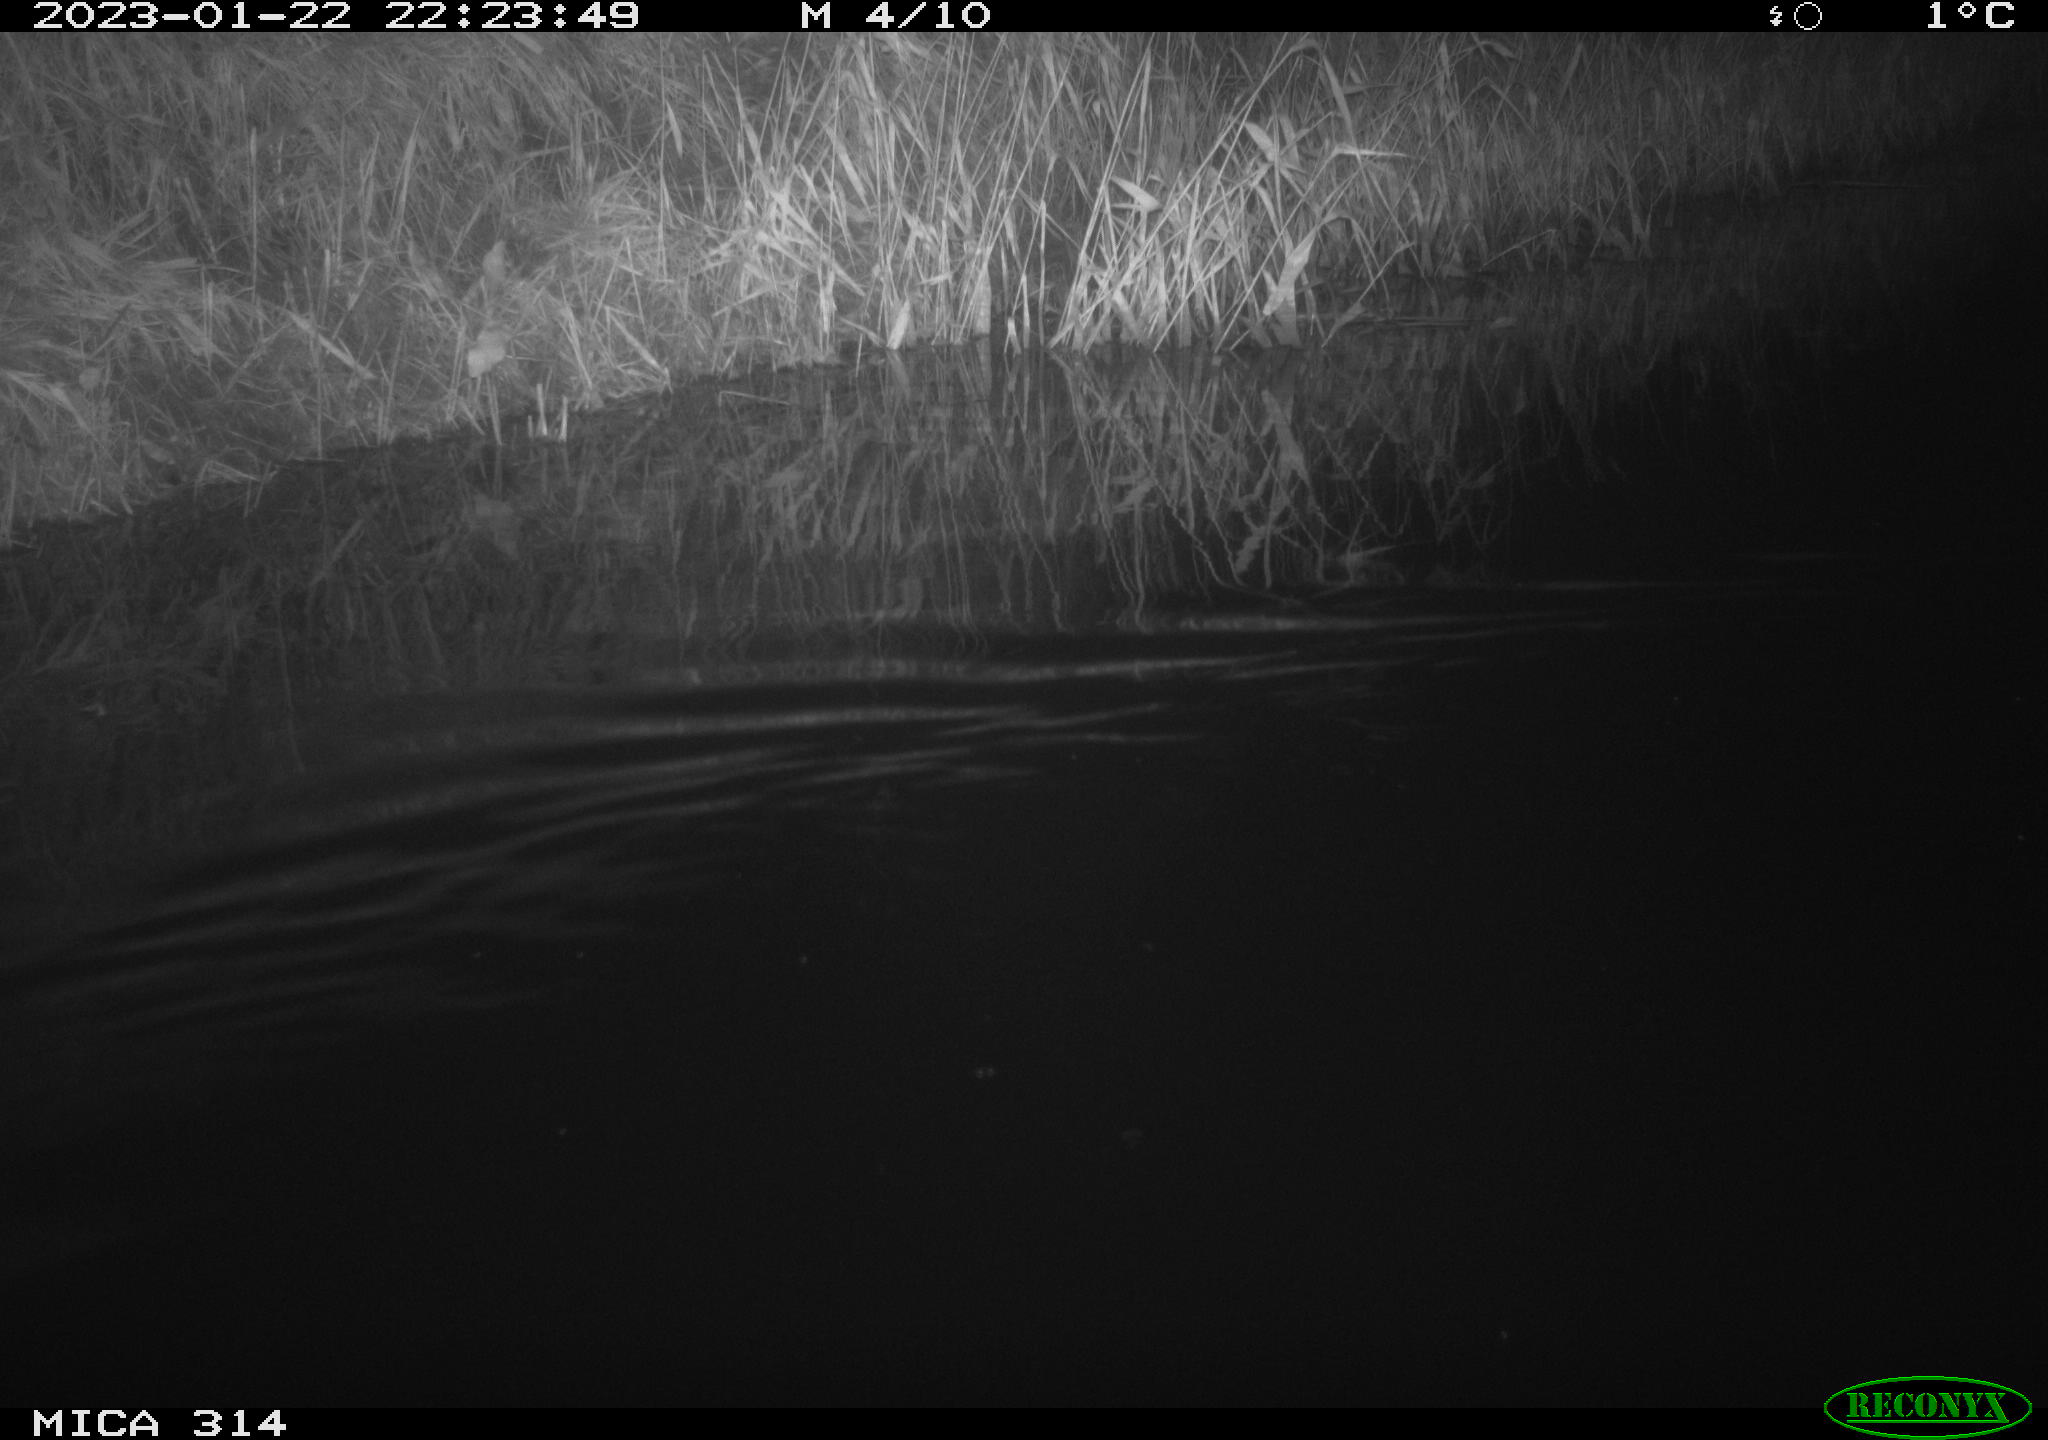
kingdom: Animalia
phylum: Chordata
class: Mammalia
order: Rodentia
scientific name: Rodentia
